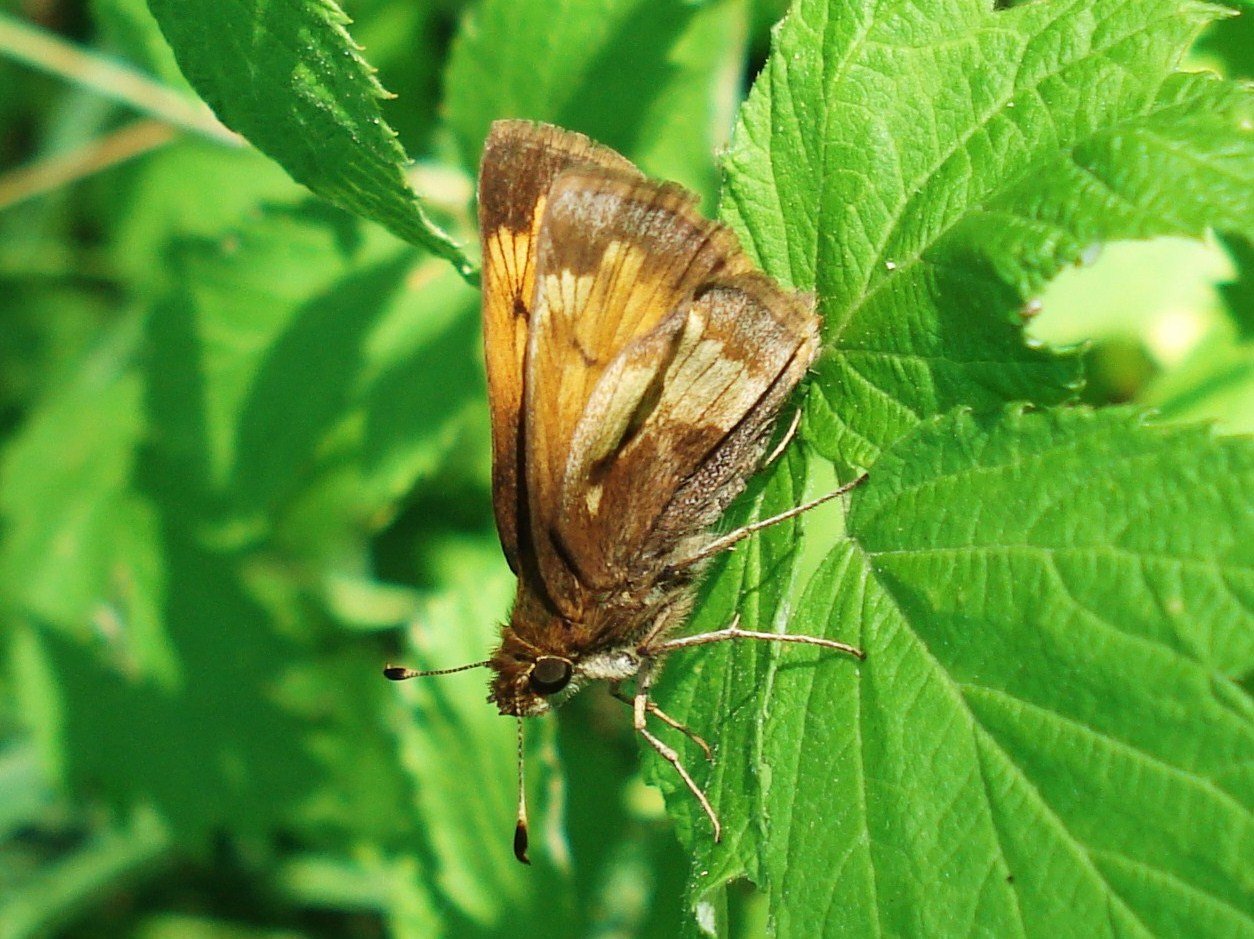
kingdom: Animalia
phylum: Arthropoda
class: Insecta
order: Lepidoptera
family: Hesperiidae
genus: Lon
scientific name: Lon hobomok
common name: Hobomok Skipper
